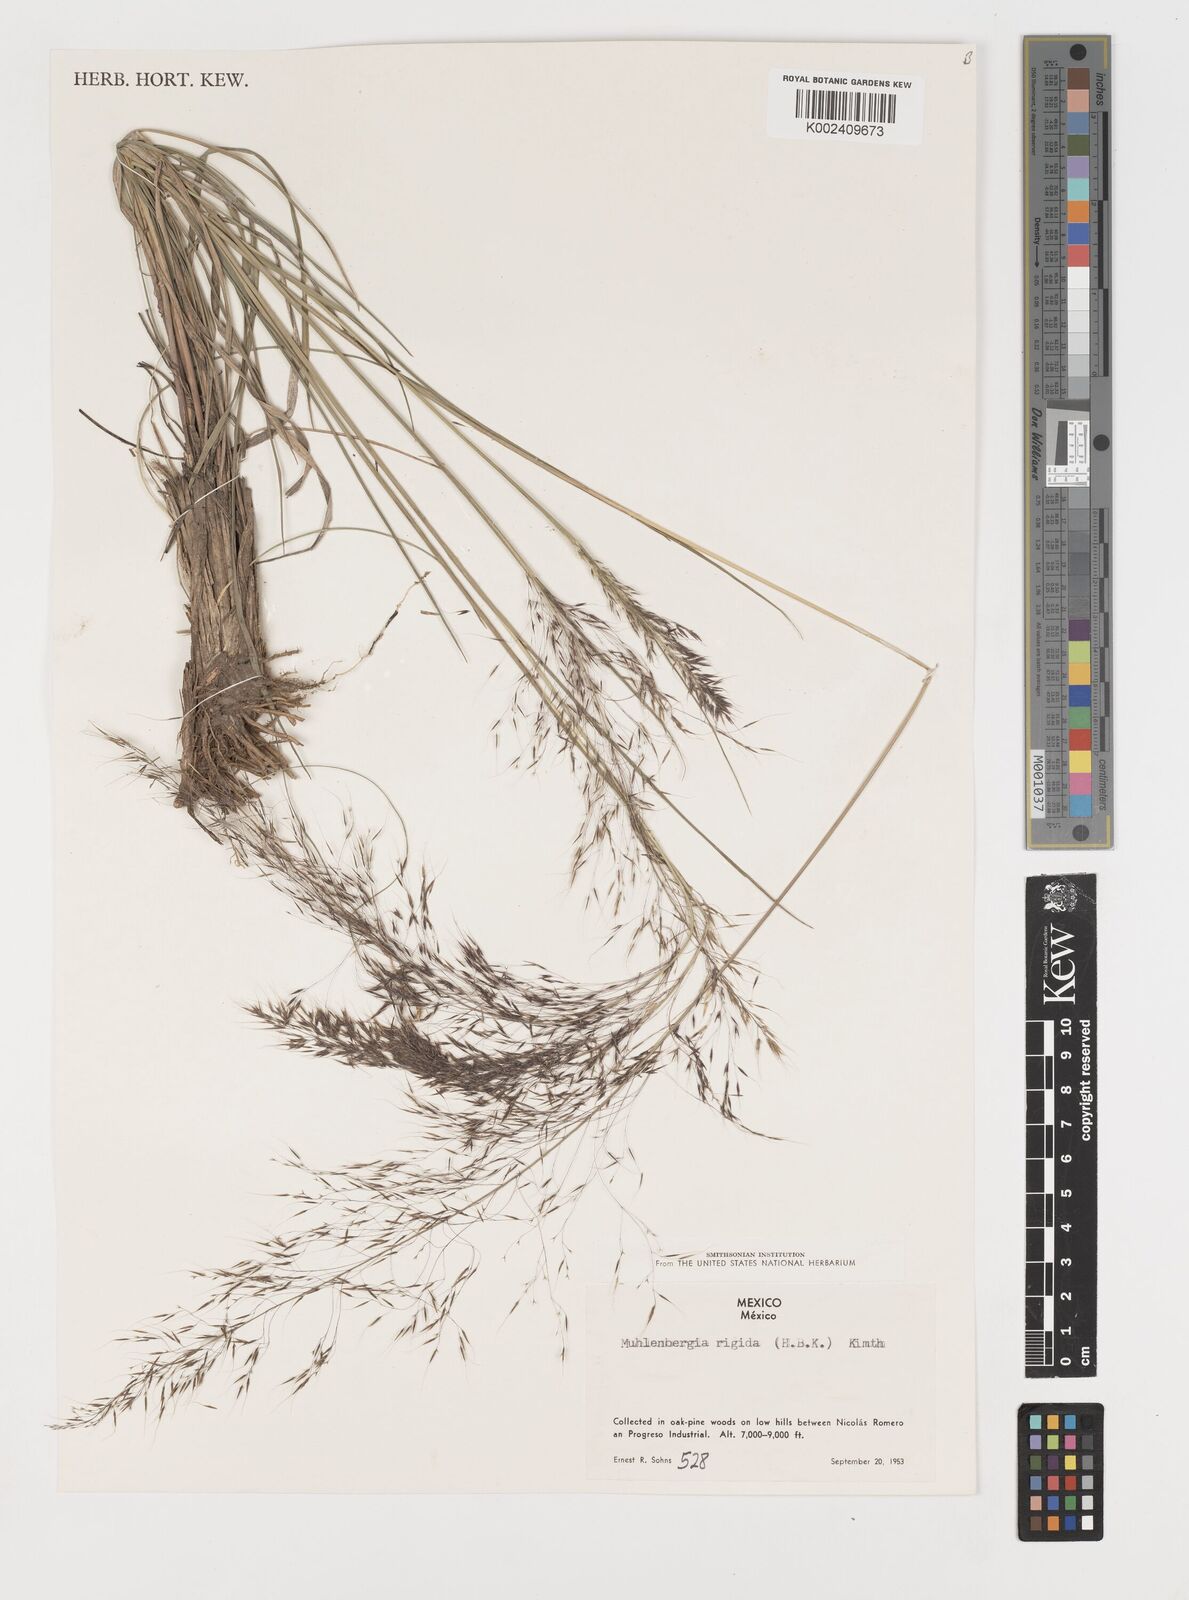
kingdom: Plantae
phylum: Tracheophyta
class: Liliopsida
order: Poales
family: Poaceae
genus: Muhlenbergia
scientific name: Muhlenbergia rigida
